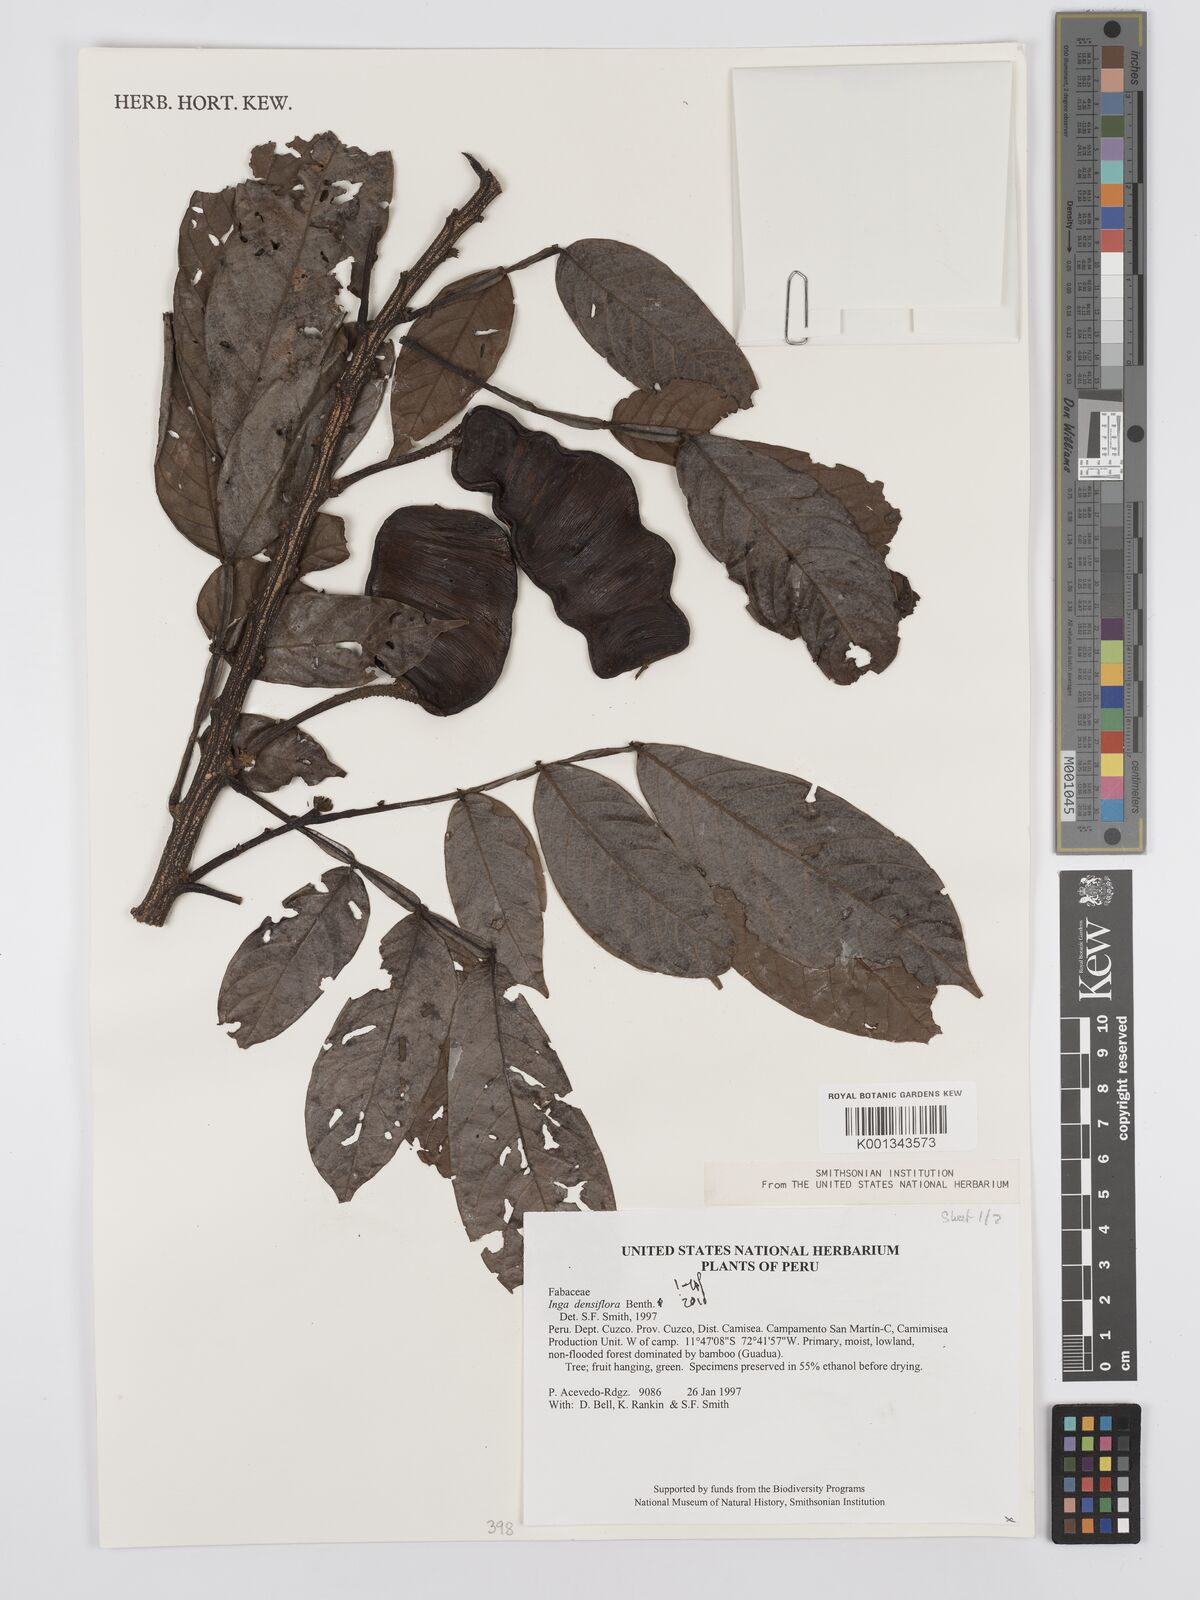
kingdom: Plantae
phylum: Tracheophyta
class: Magnoliopsida
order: Fabales
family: Fabaceae
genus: Inga
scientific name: Inga densiflora
